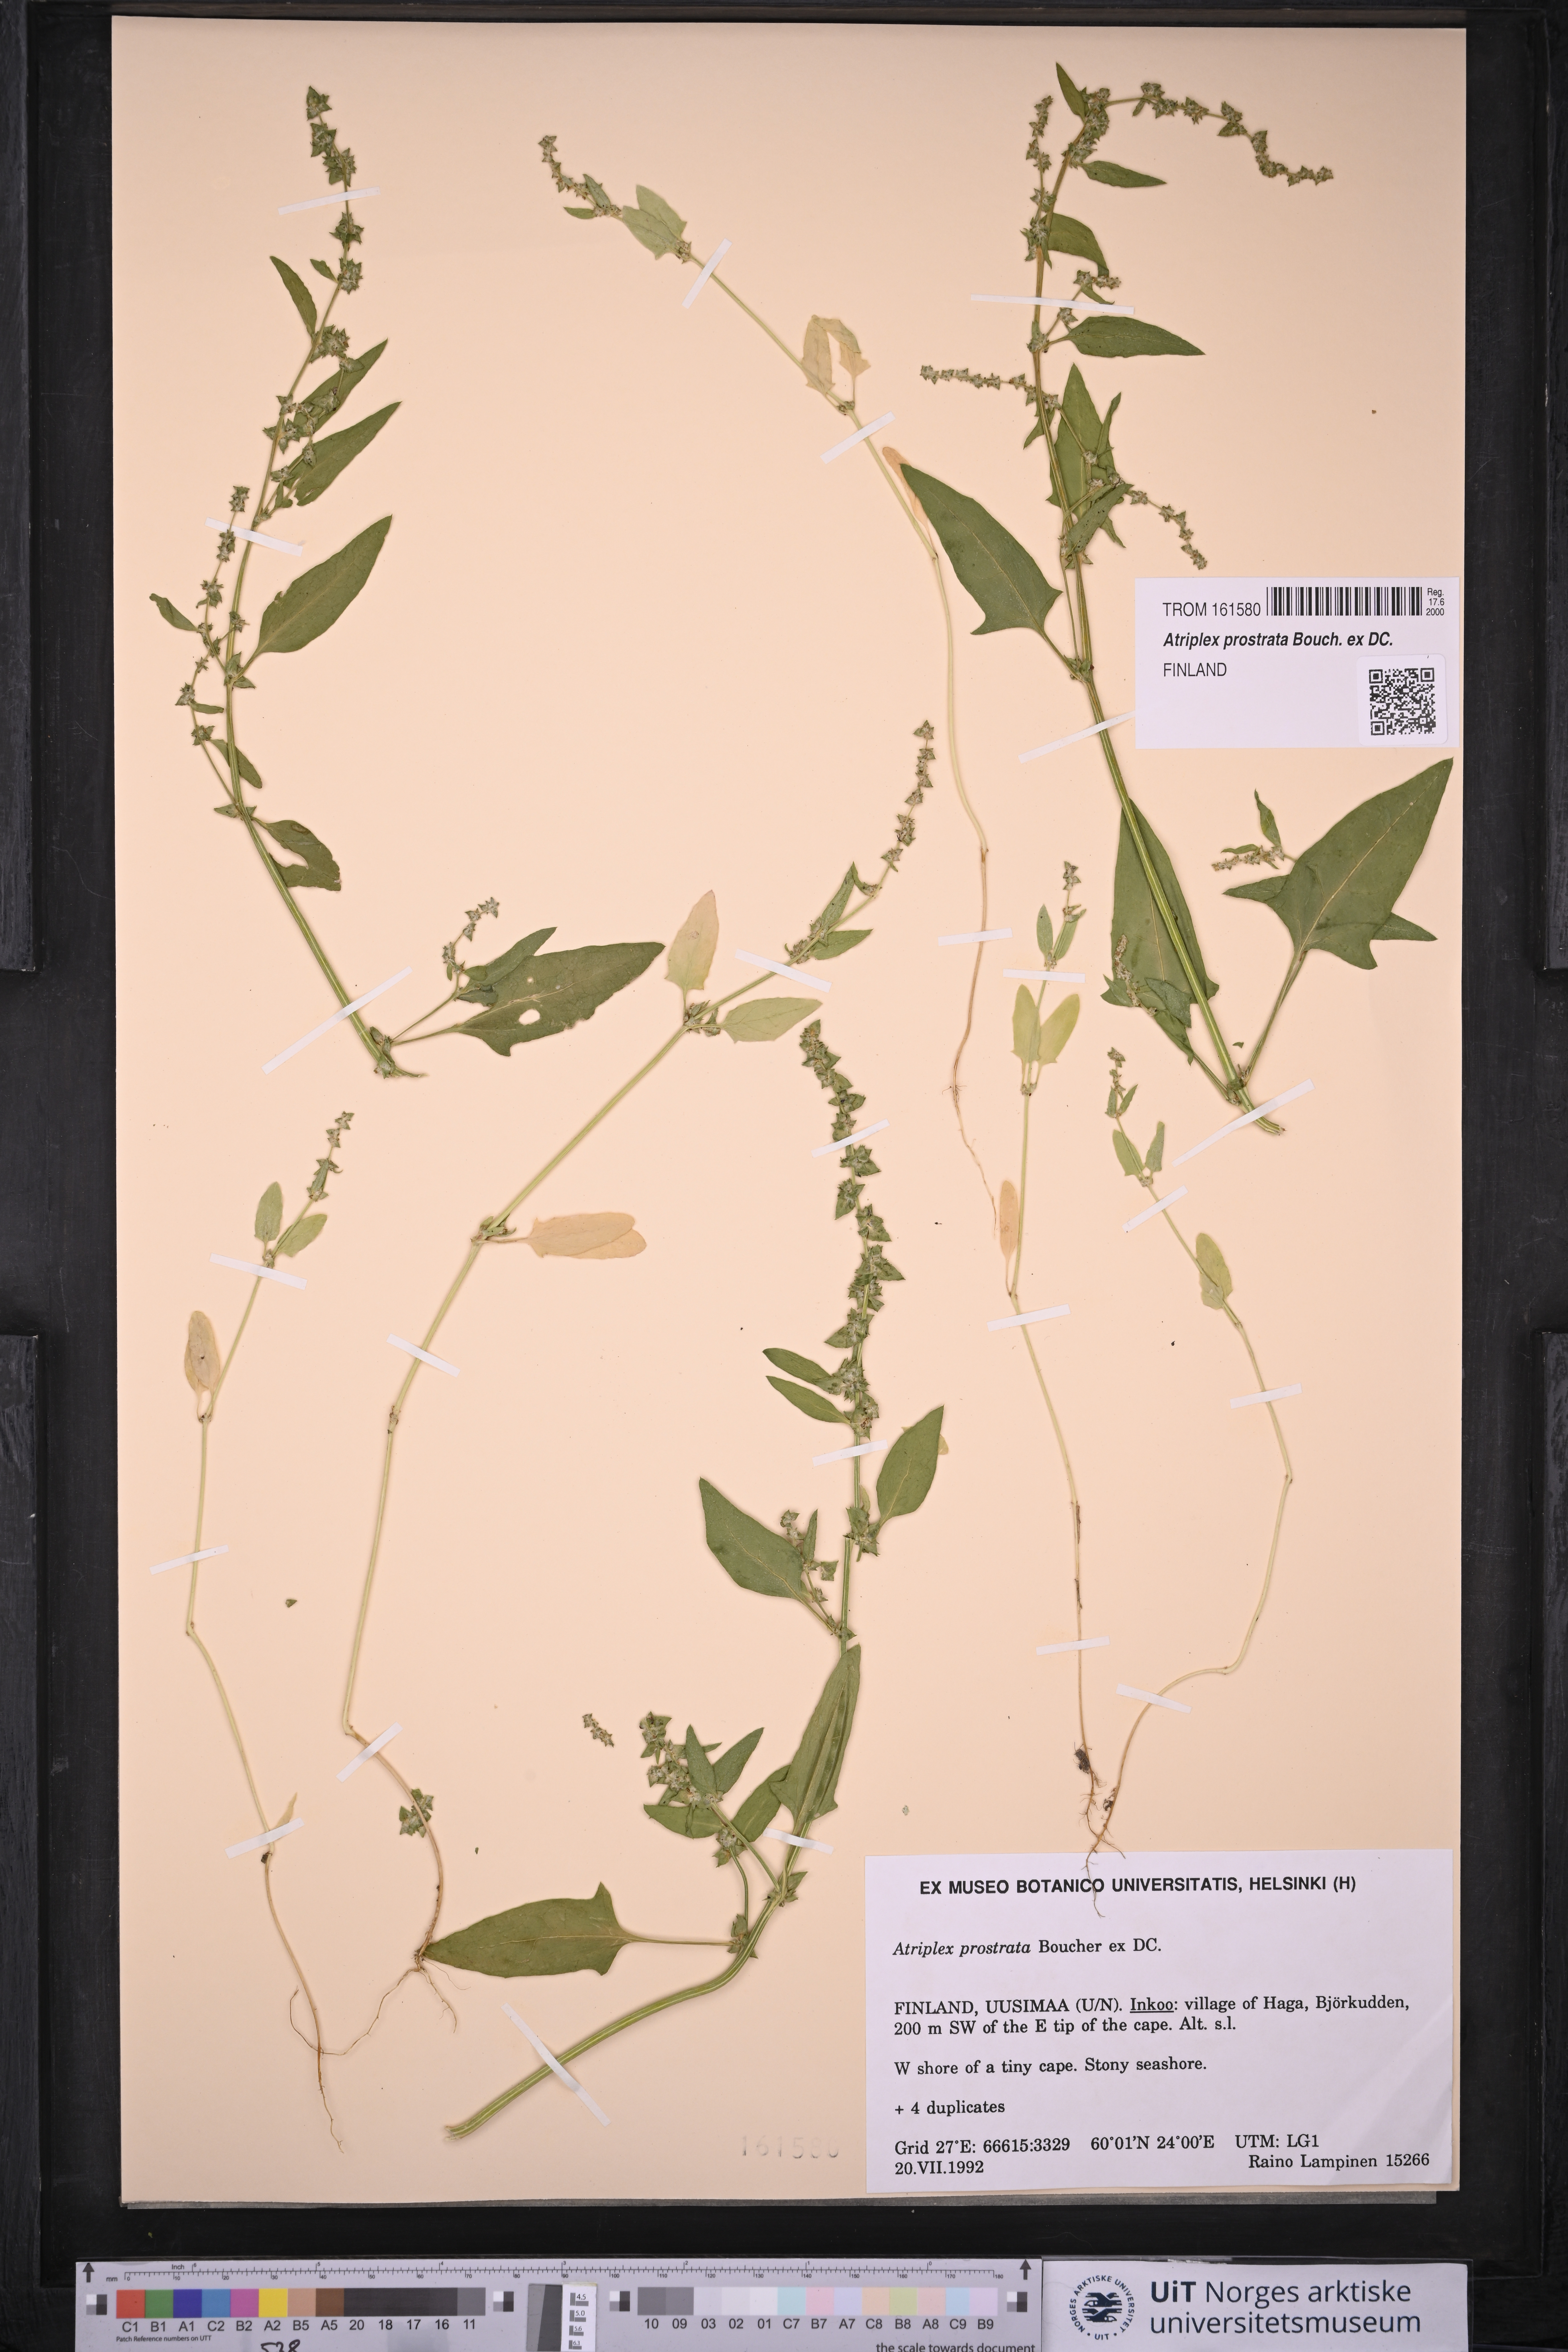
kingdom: Plantae
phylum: Tracheophyta
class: Magnoliopsida
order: Caryophyllales
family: Amaranthaceae
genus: Atriplex
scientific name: Atriplex prostrata
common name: Spear-leaved orache
